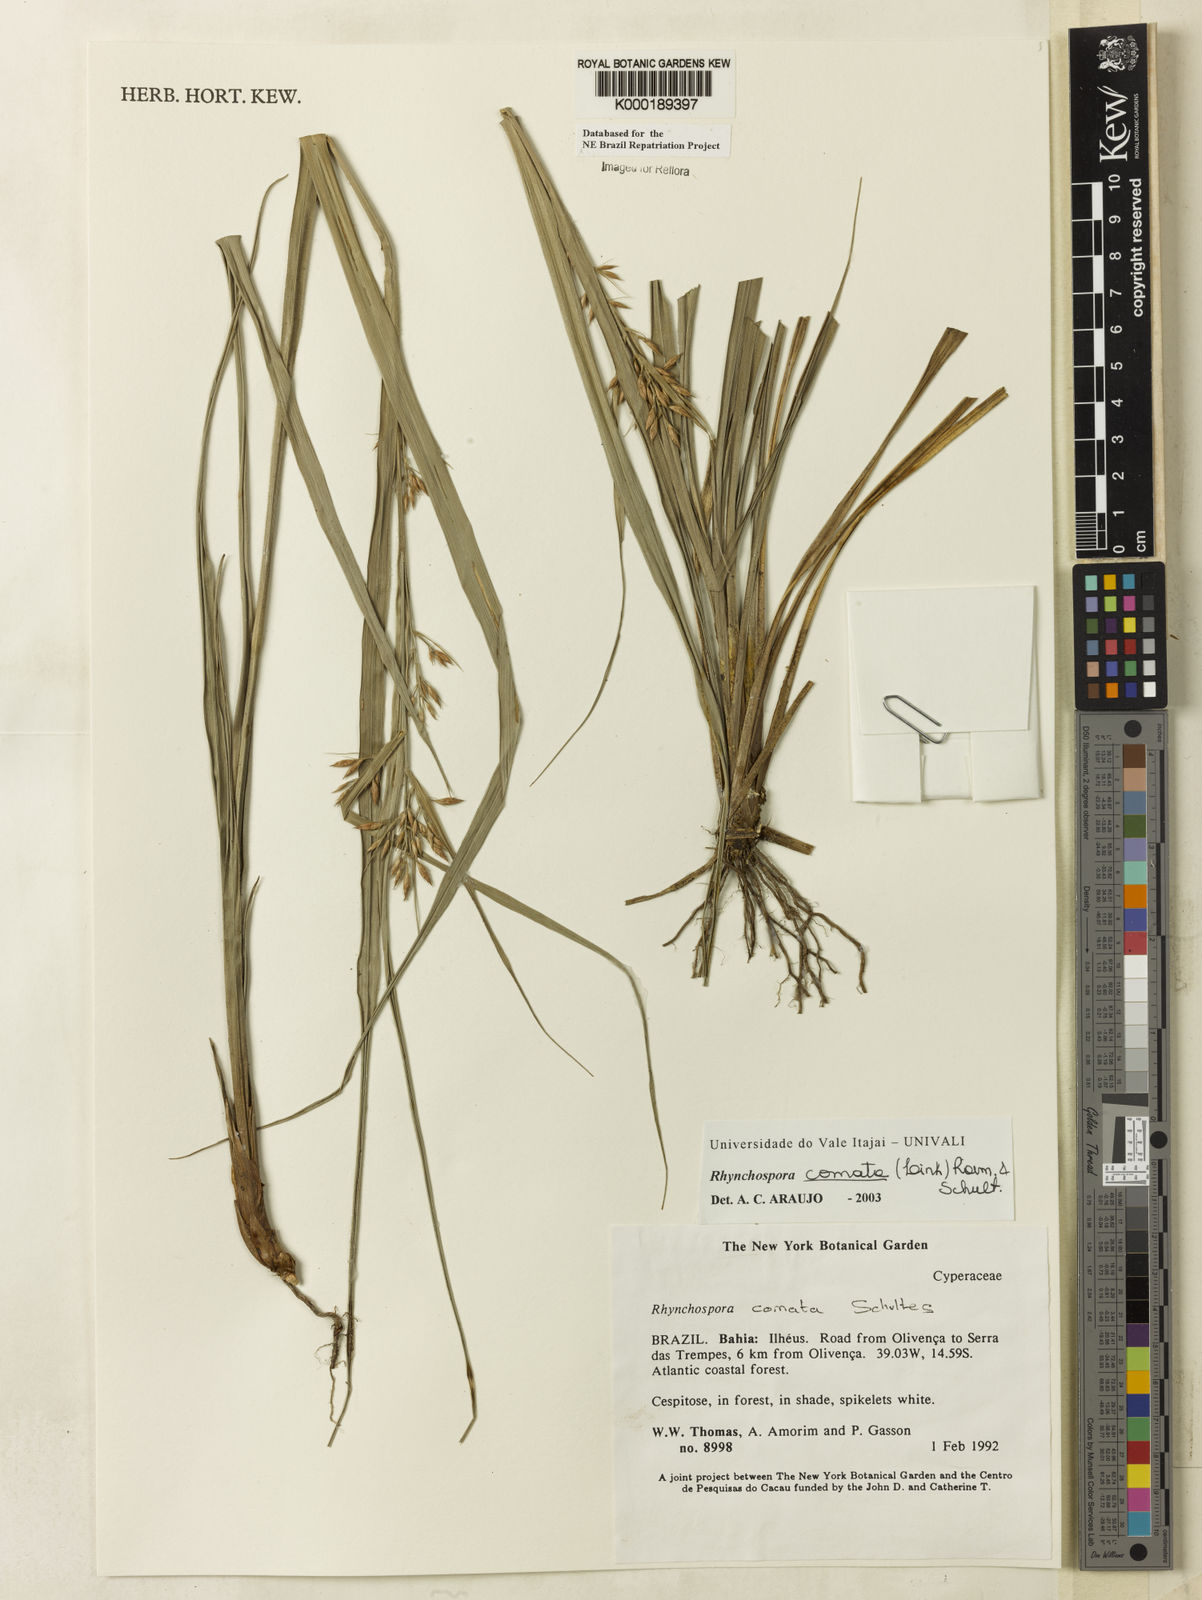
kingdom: Plantae
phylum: Tracheophyta
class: Liliopsida
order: Poales
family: Cyperaceae
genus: Rhynchospora
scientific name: Rhynchospora comata
